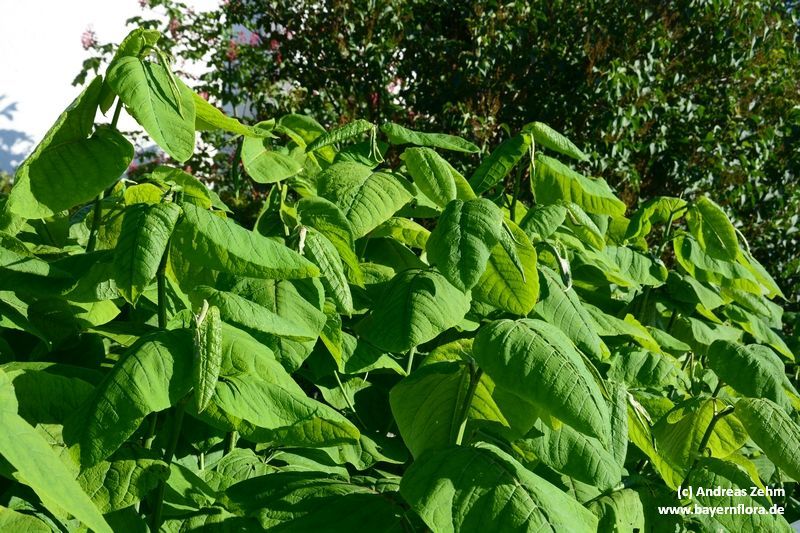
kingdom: Plantae
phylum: Tracheophyta
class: Magnoliopsida
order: Caryophyllales
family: Polygonaceae
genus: Reynoutria
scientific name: Reynoutria sachalinensis
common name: Giant knotweed
